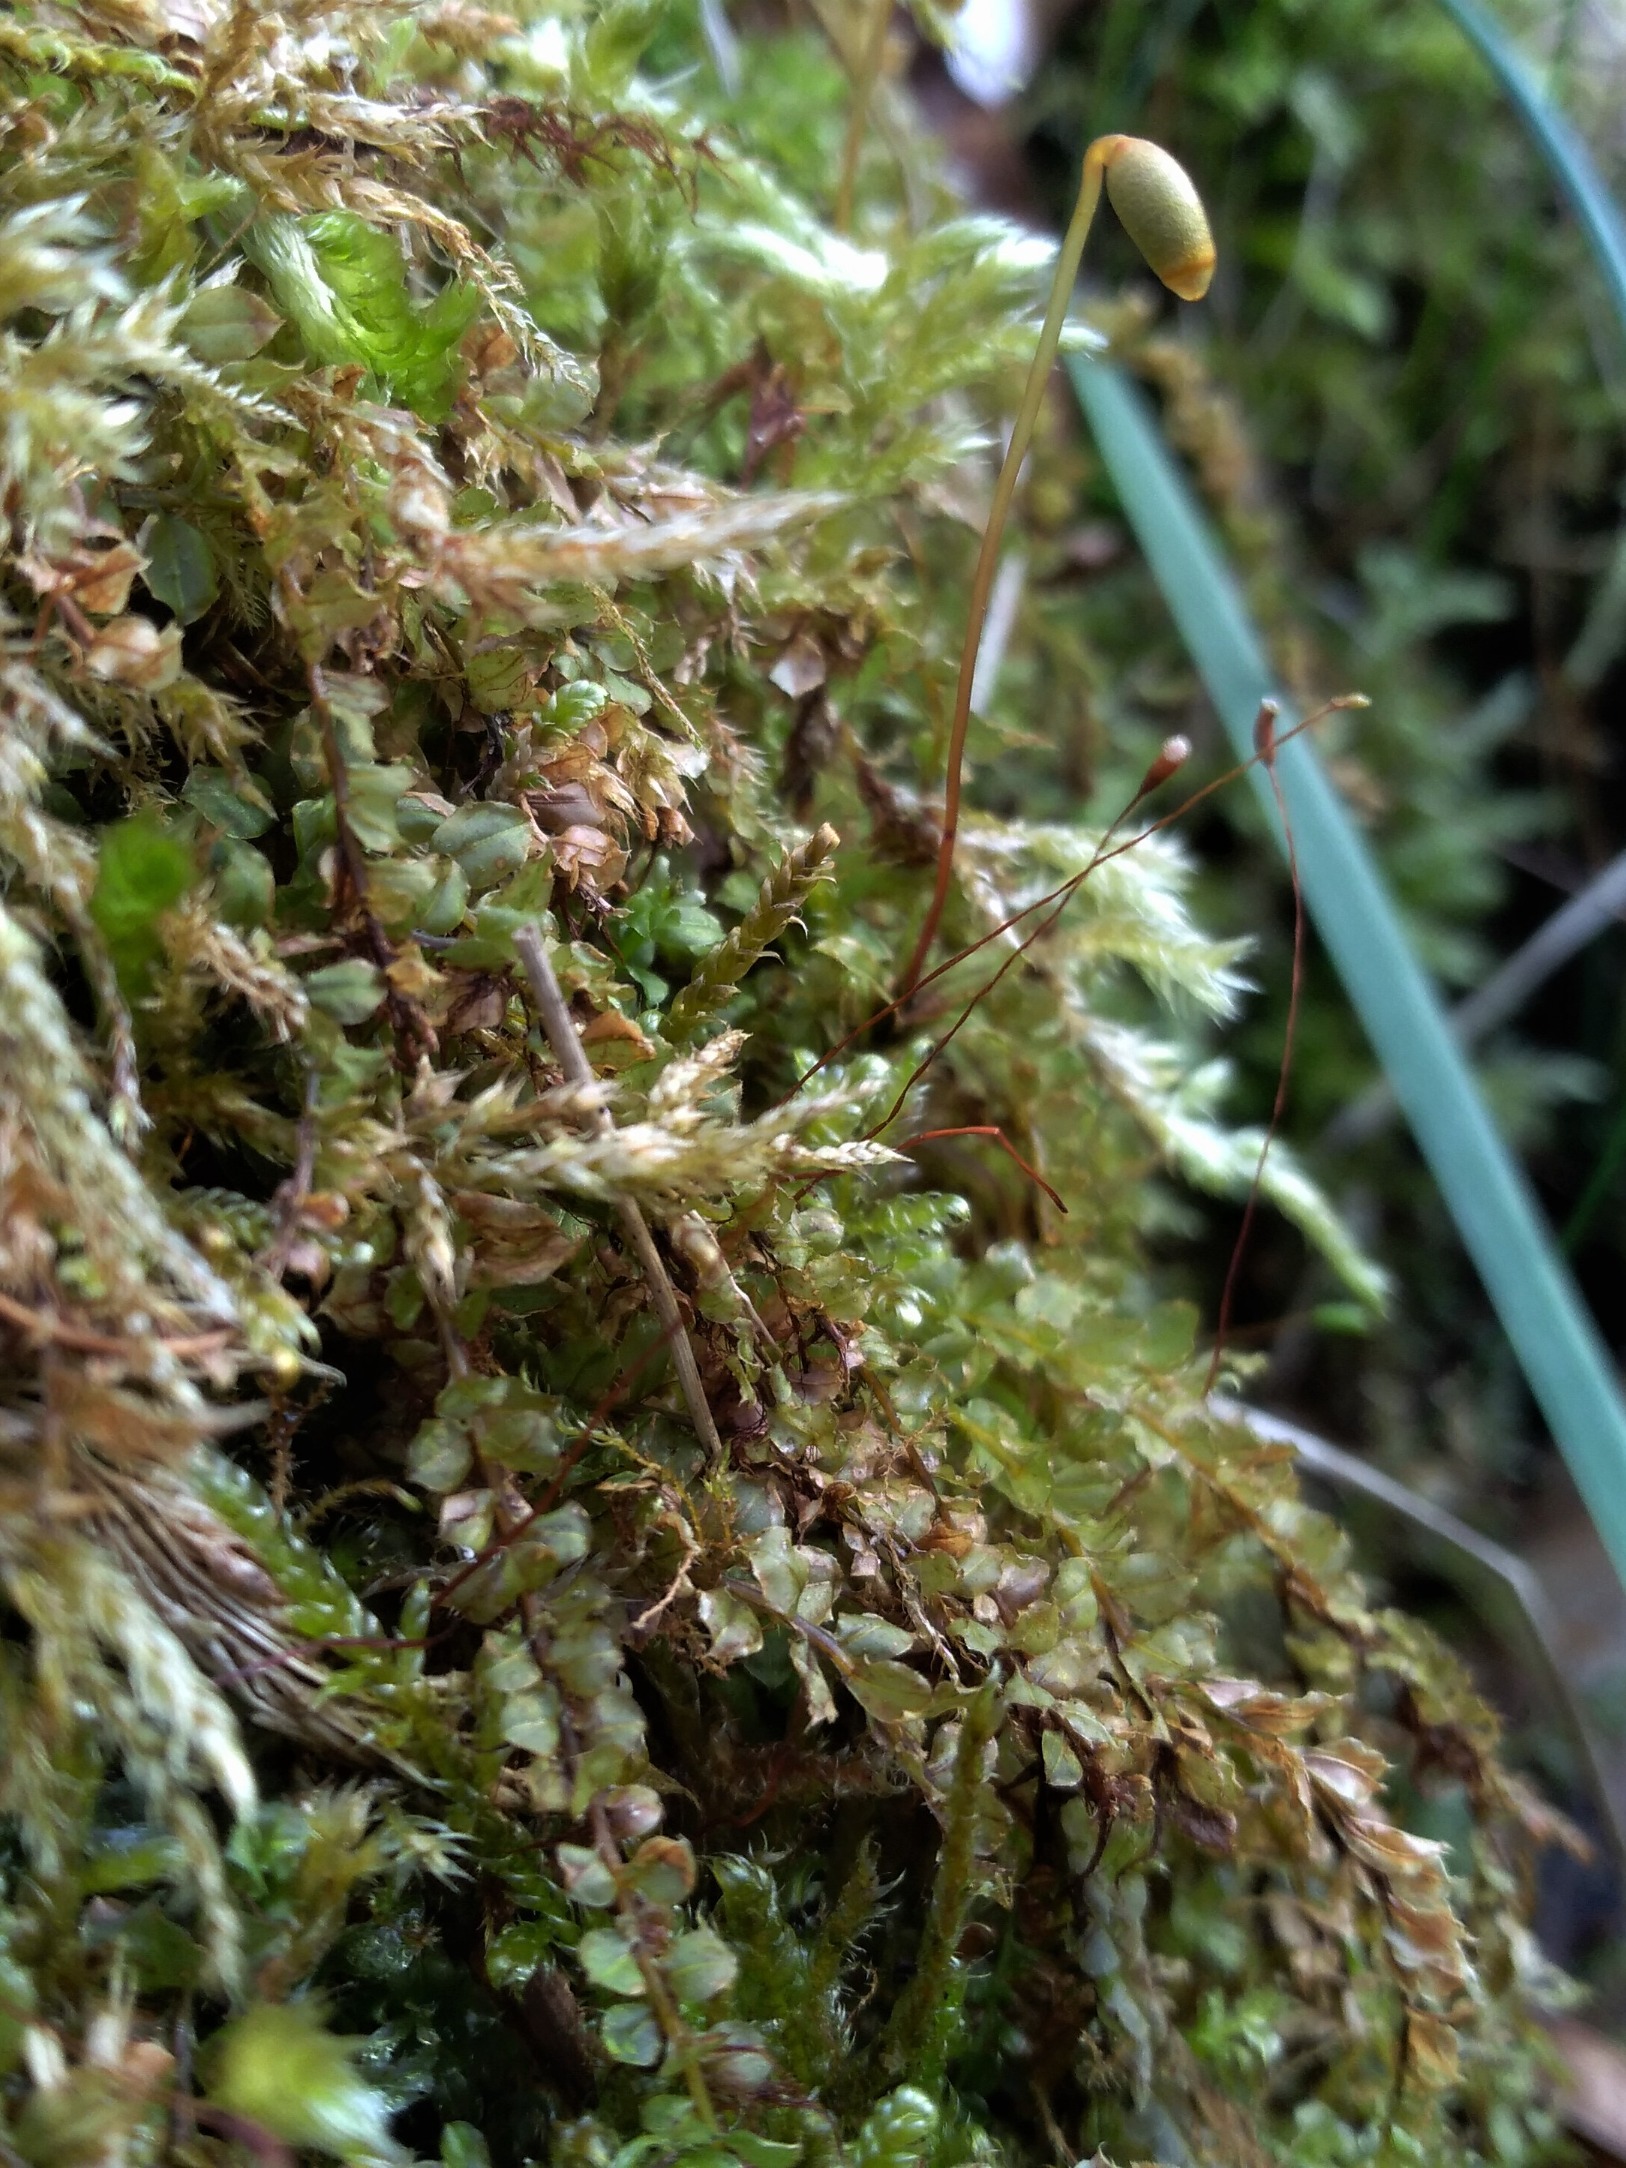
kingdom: Plantae
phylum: Bryophyta
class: Bryopsida
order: Bryales
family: Mniaceae
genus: Plagiomnium
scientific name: Plagiomnium cuspidatum
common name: Gærde-krybstjerne
